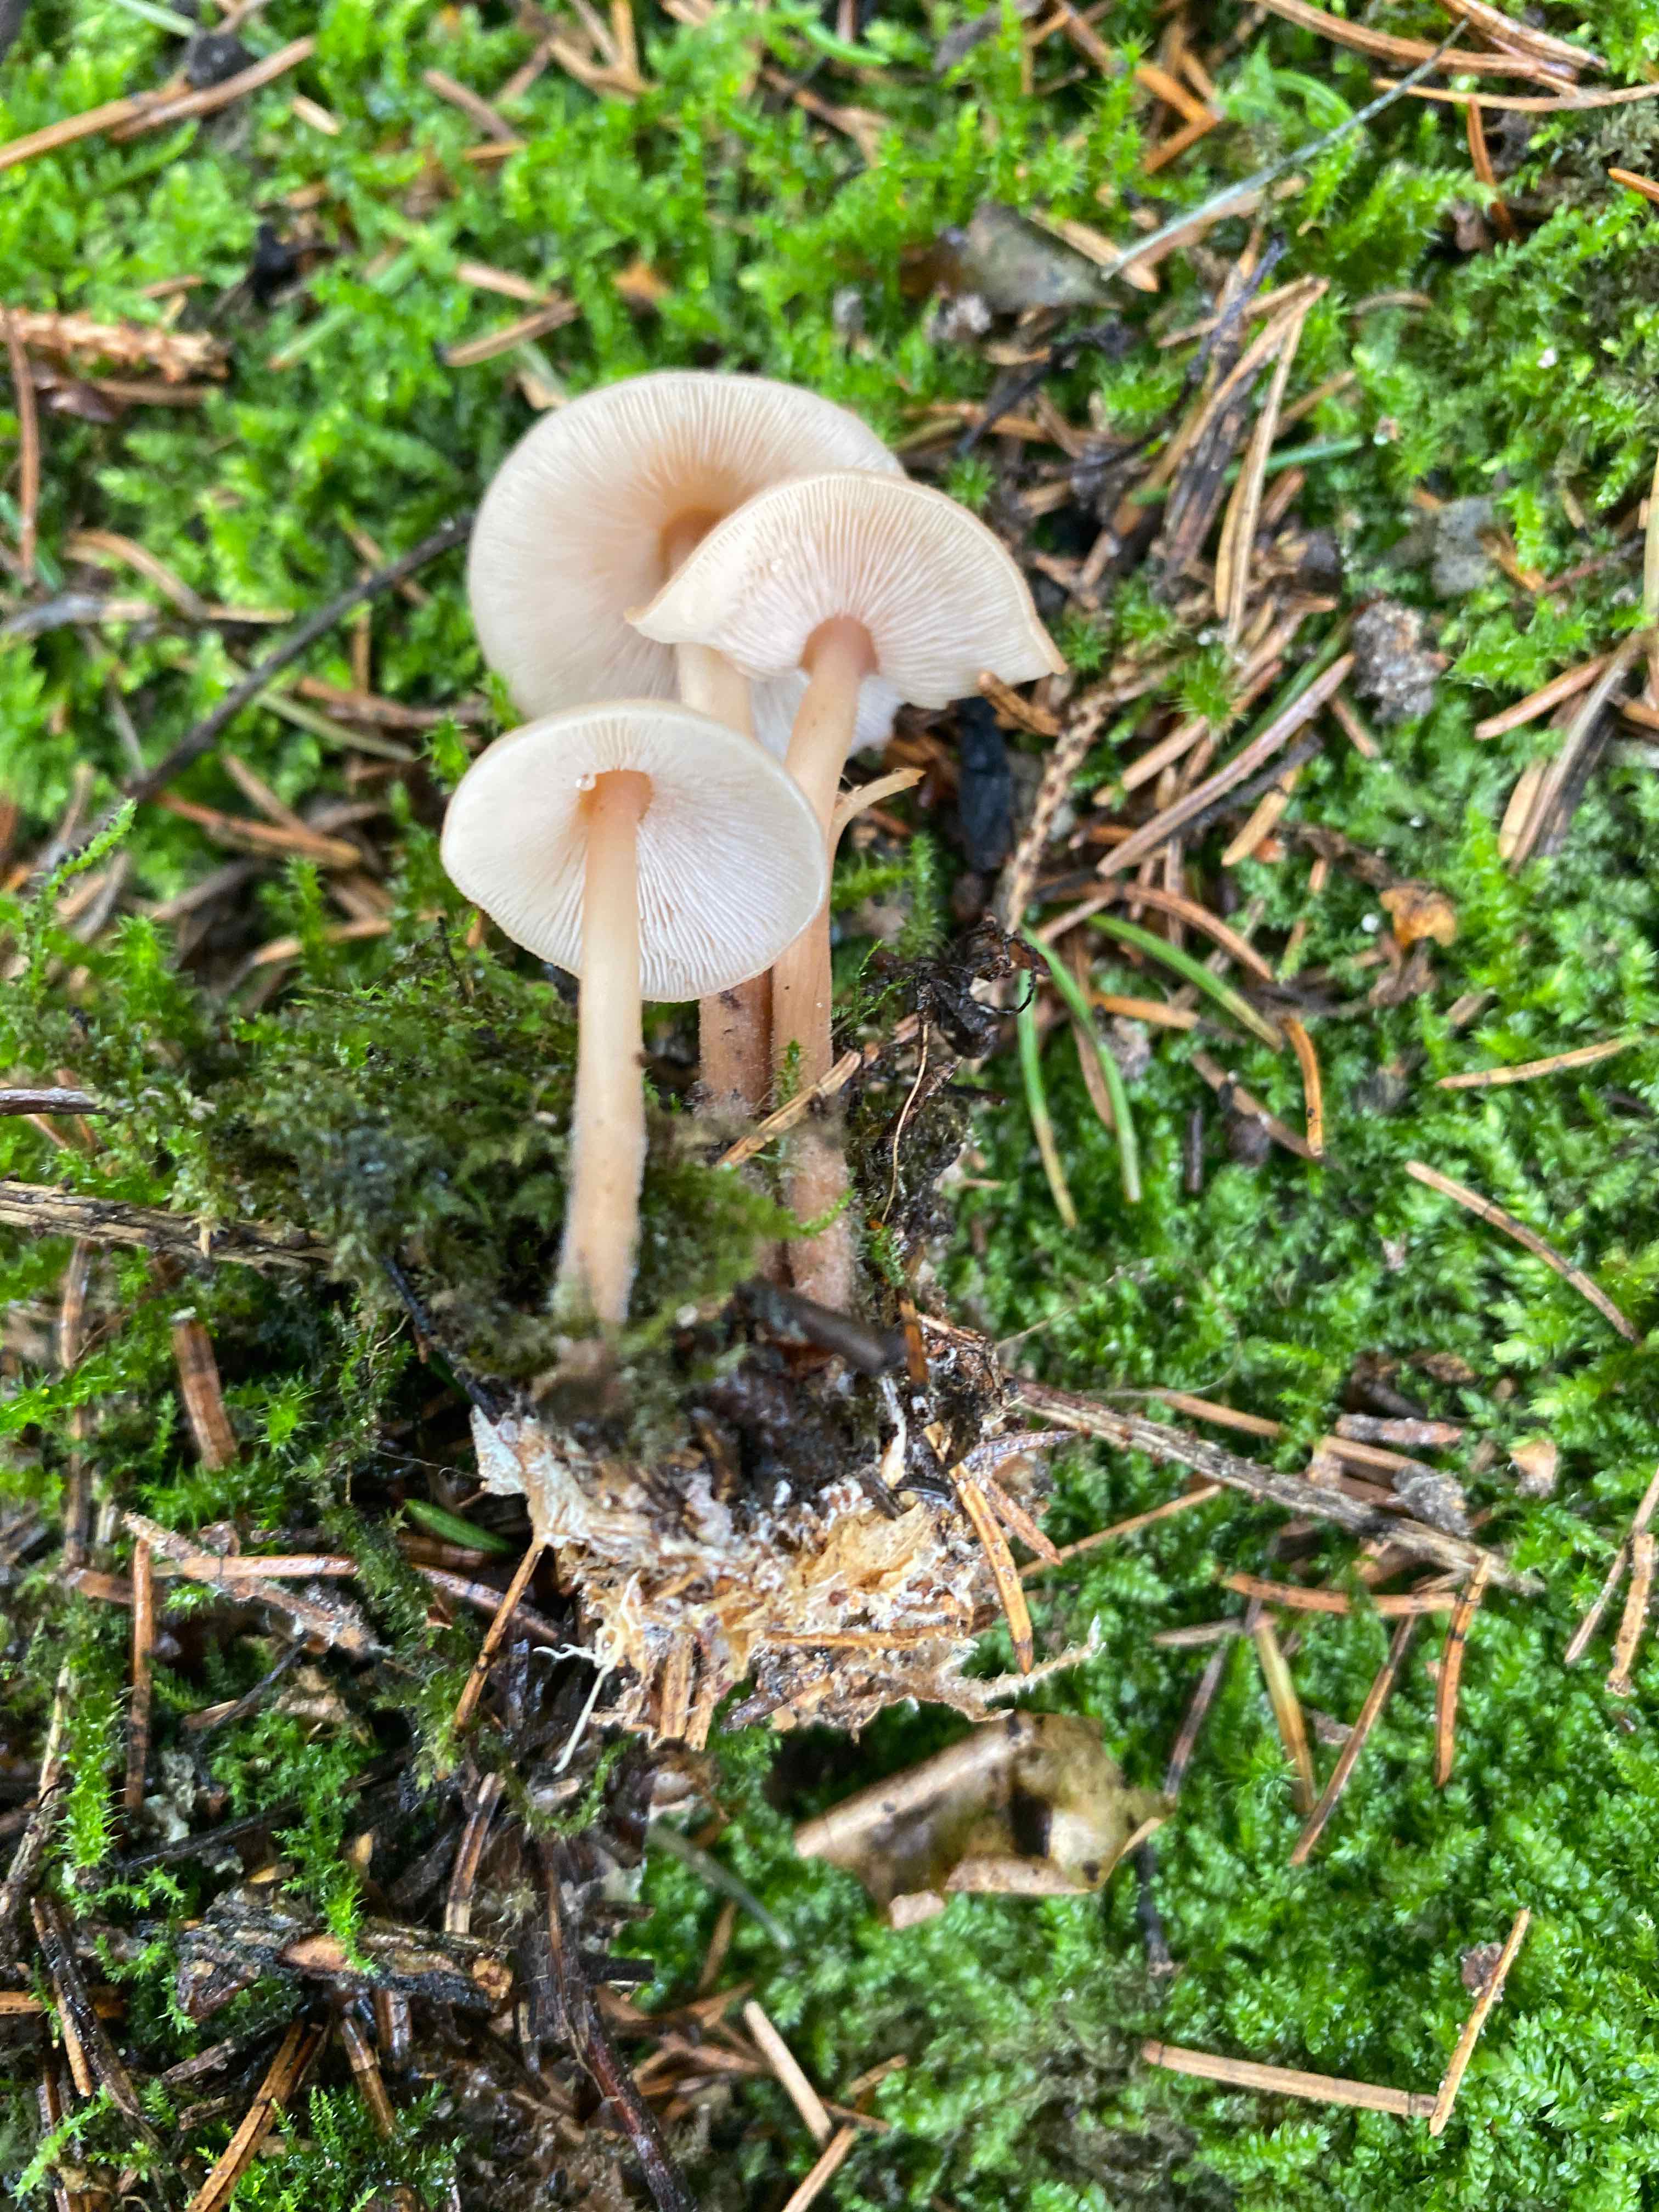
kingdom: Fungi
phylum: Basidiomycota
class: Agaricomycetes
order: Agaricales
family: Omphalotaceae
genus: Collybiopsis
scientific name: Collybiopsis confluens
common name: knippe-fladhat
